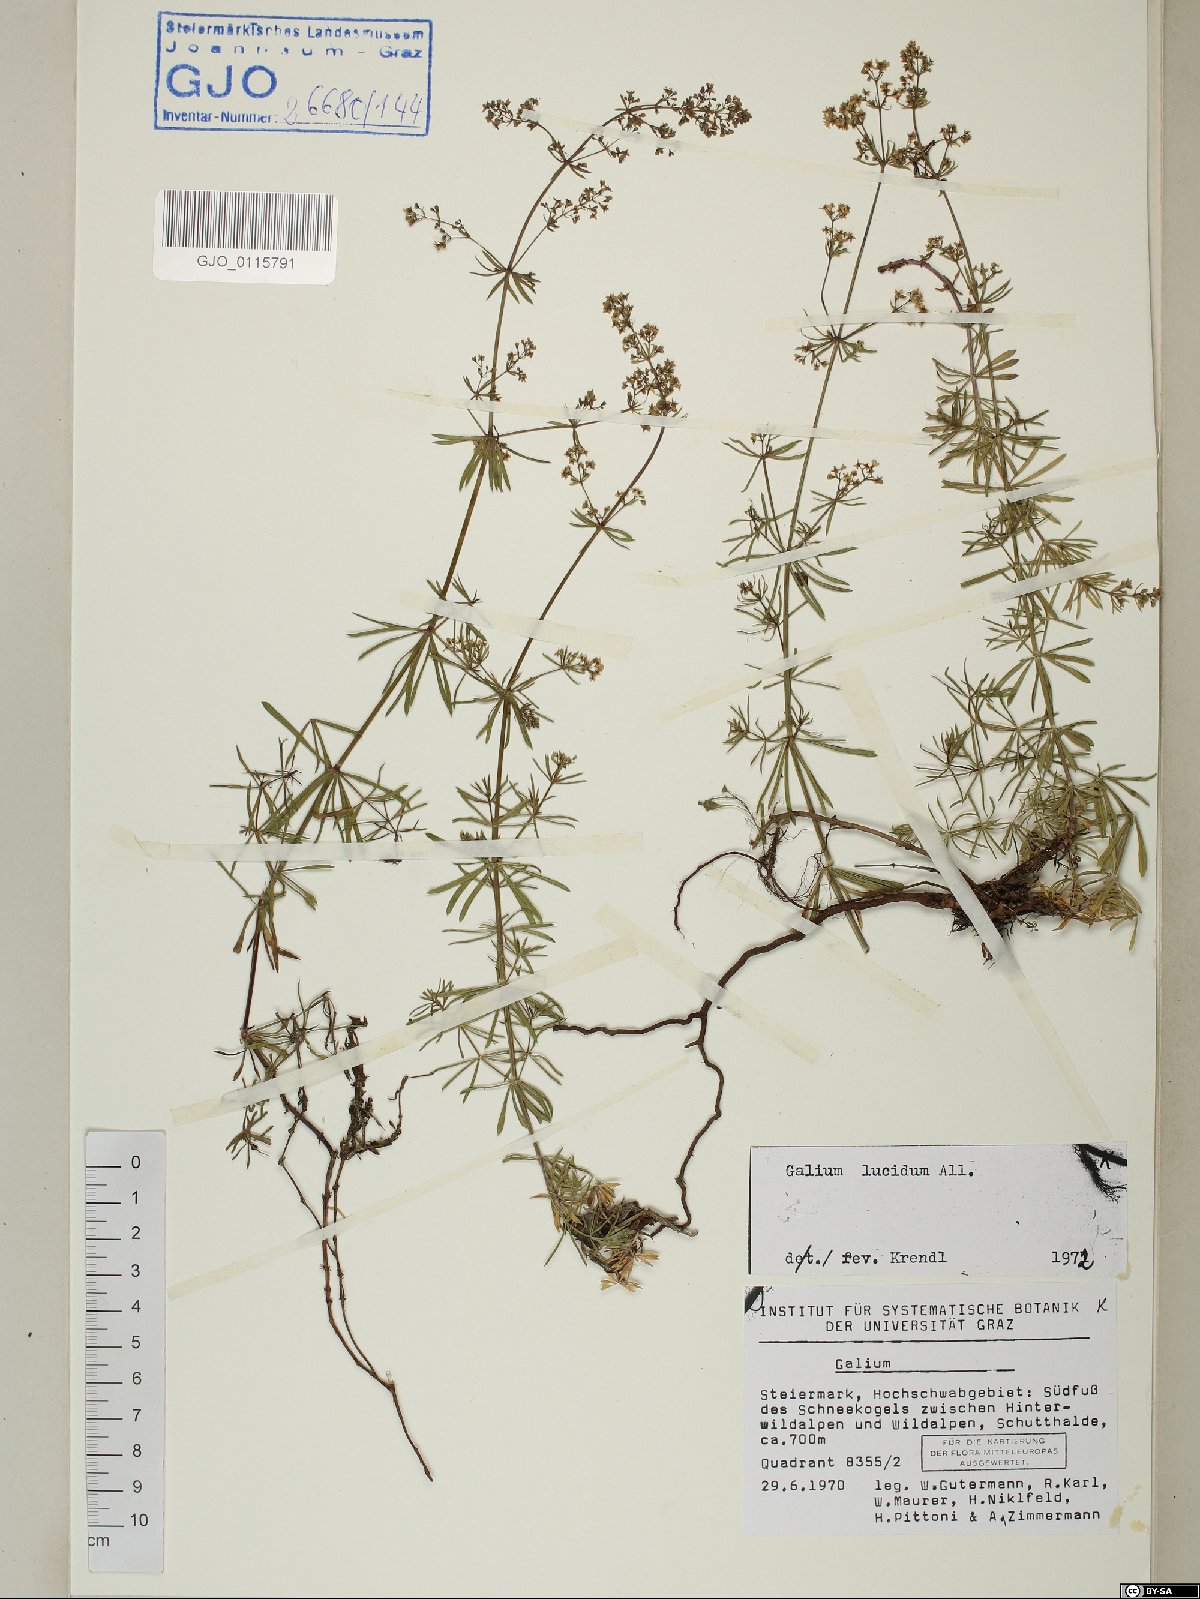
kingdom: Plantae
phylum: Tracheophyta
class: Magnoliopsida
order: Gentianales
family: Rubiaceae
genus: Galium
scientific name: Galium lucidum
